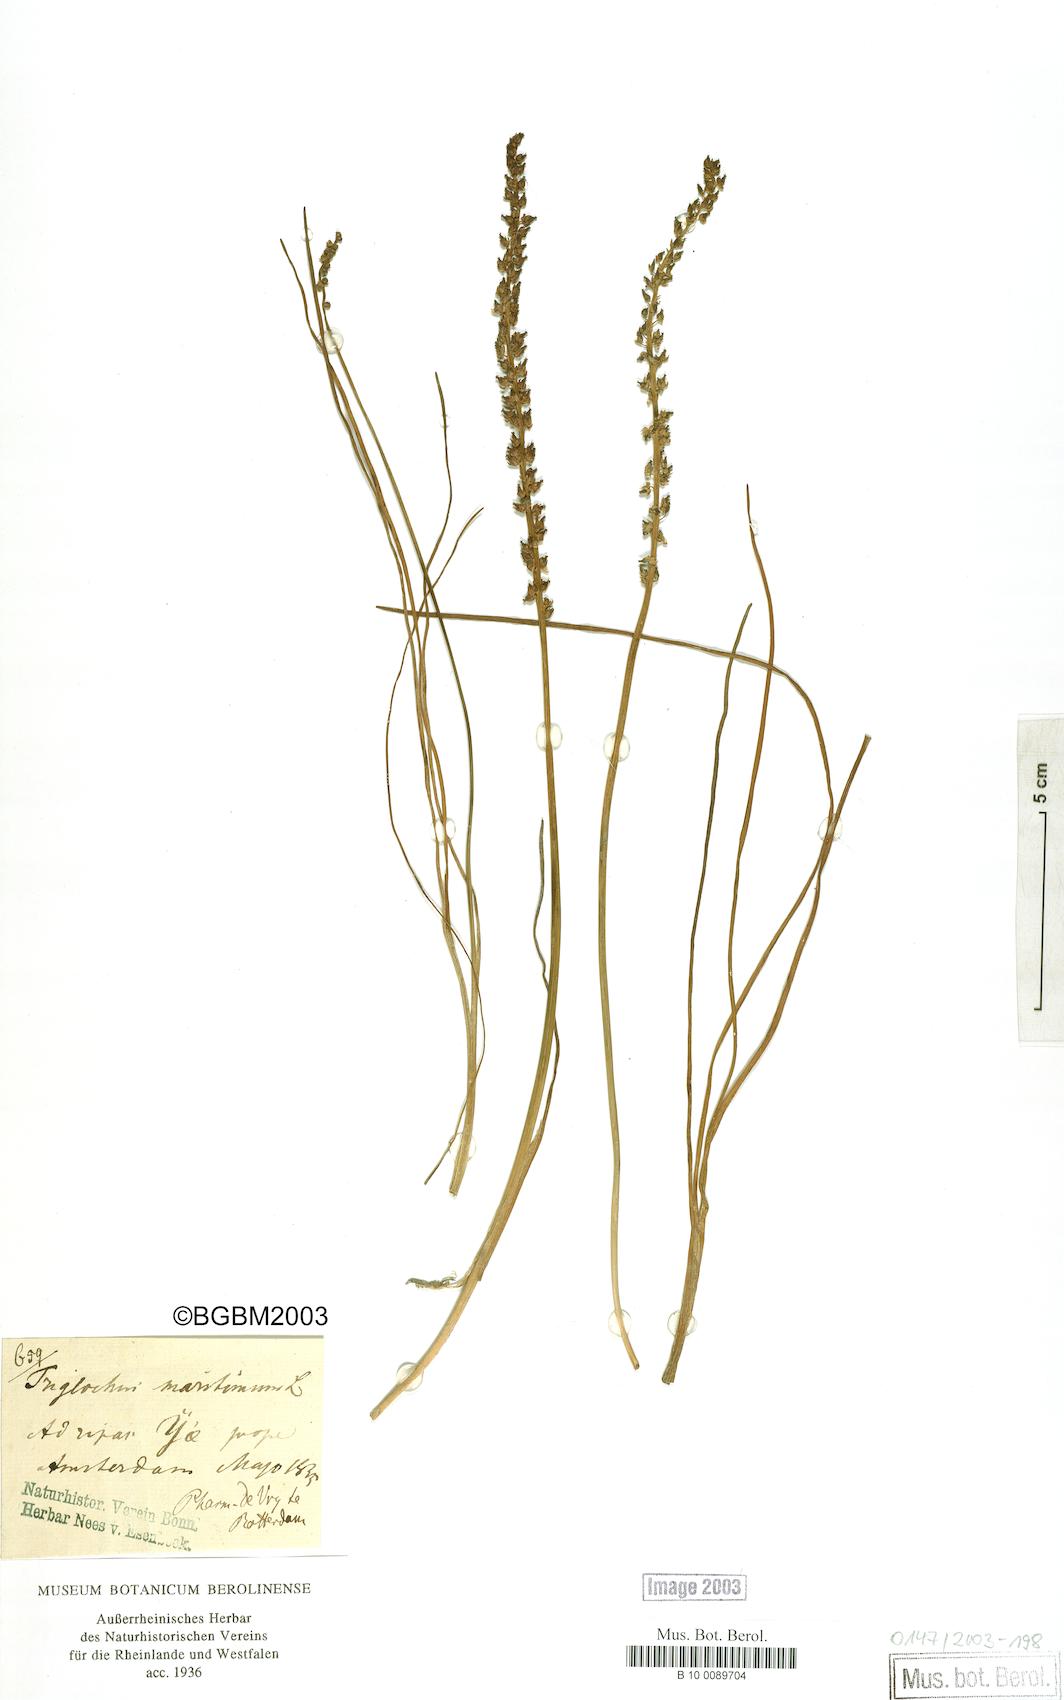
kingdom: Plantae
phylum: Tracheophyta
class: Liliopsida
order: Alismatales
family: Juncaginaceae
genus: Triglochin
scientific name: Triglochin maritima
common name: Sea arrowgrass
